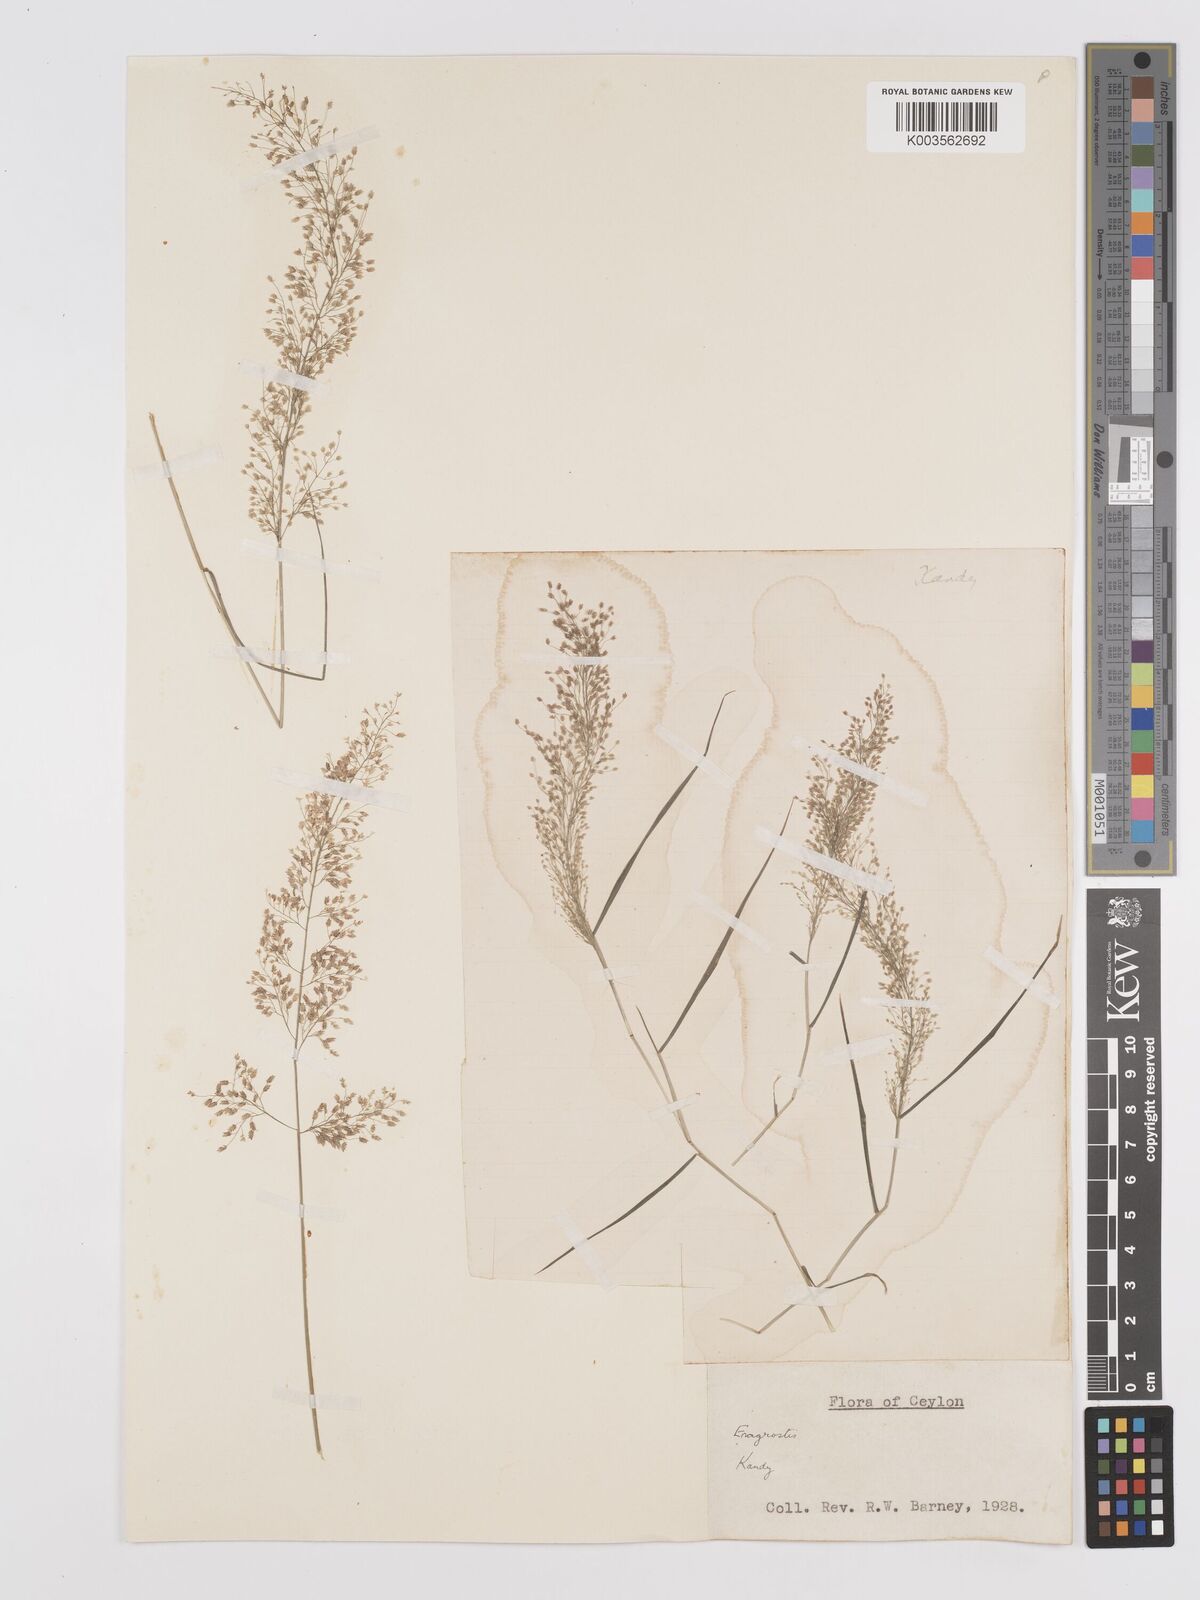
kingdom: Plantae
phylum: Tracheophyta
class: Liliopsida
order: Poales
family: Poaceae
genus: Eragrostis
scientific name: Eragrostis tenella
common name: Japanese lovegrass
